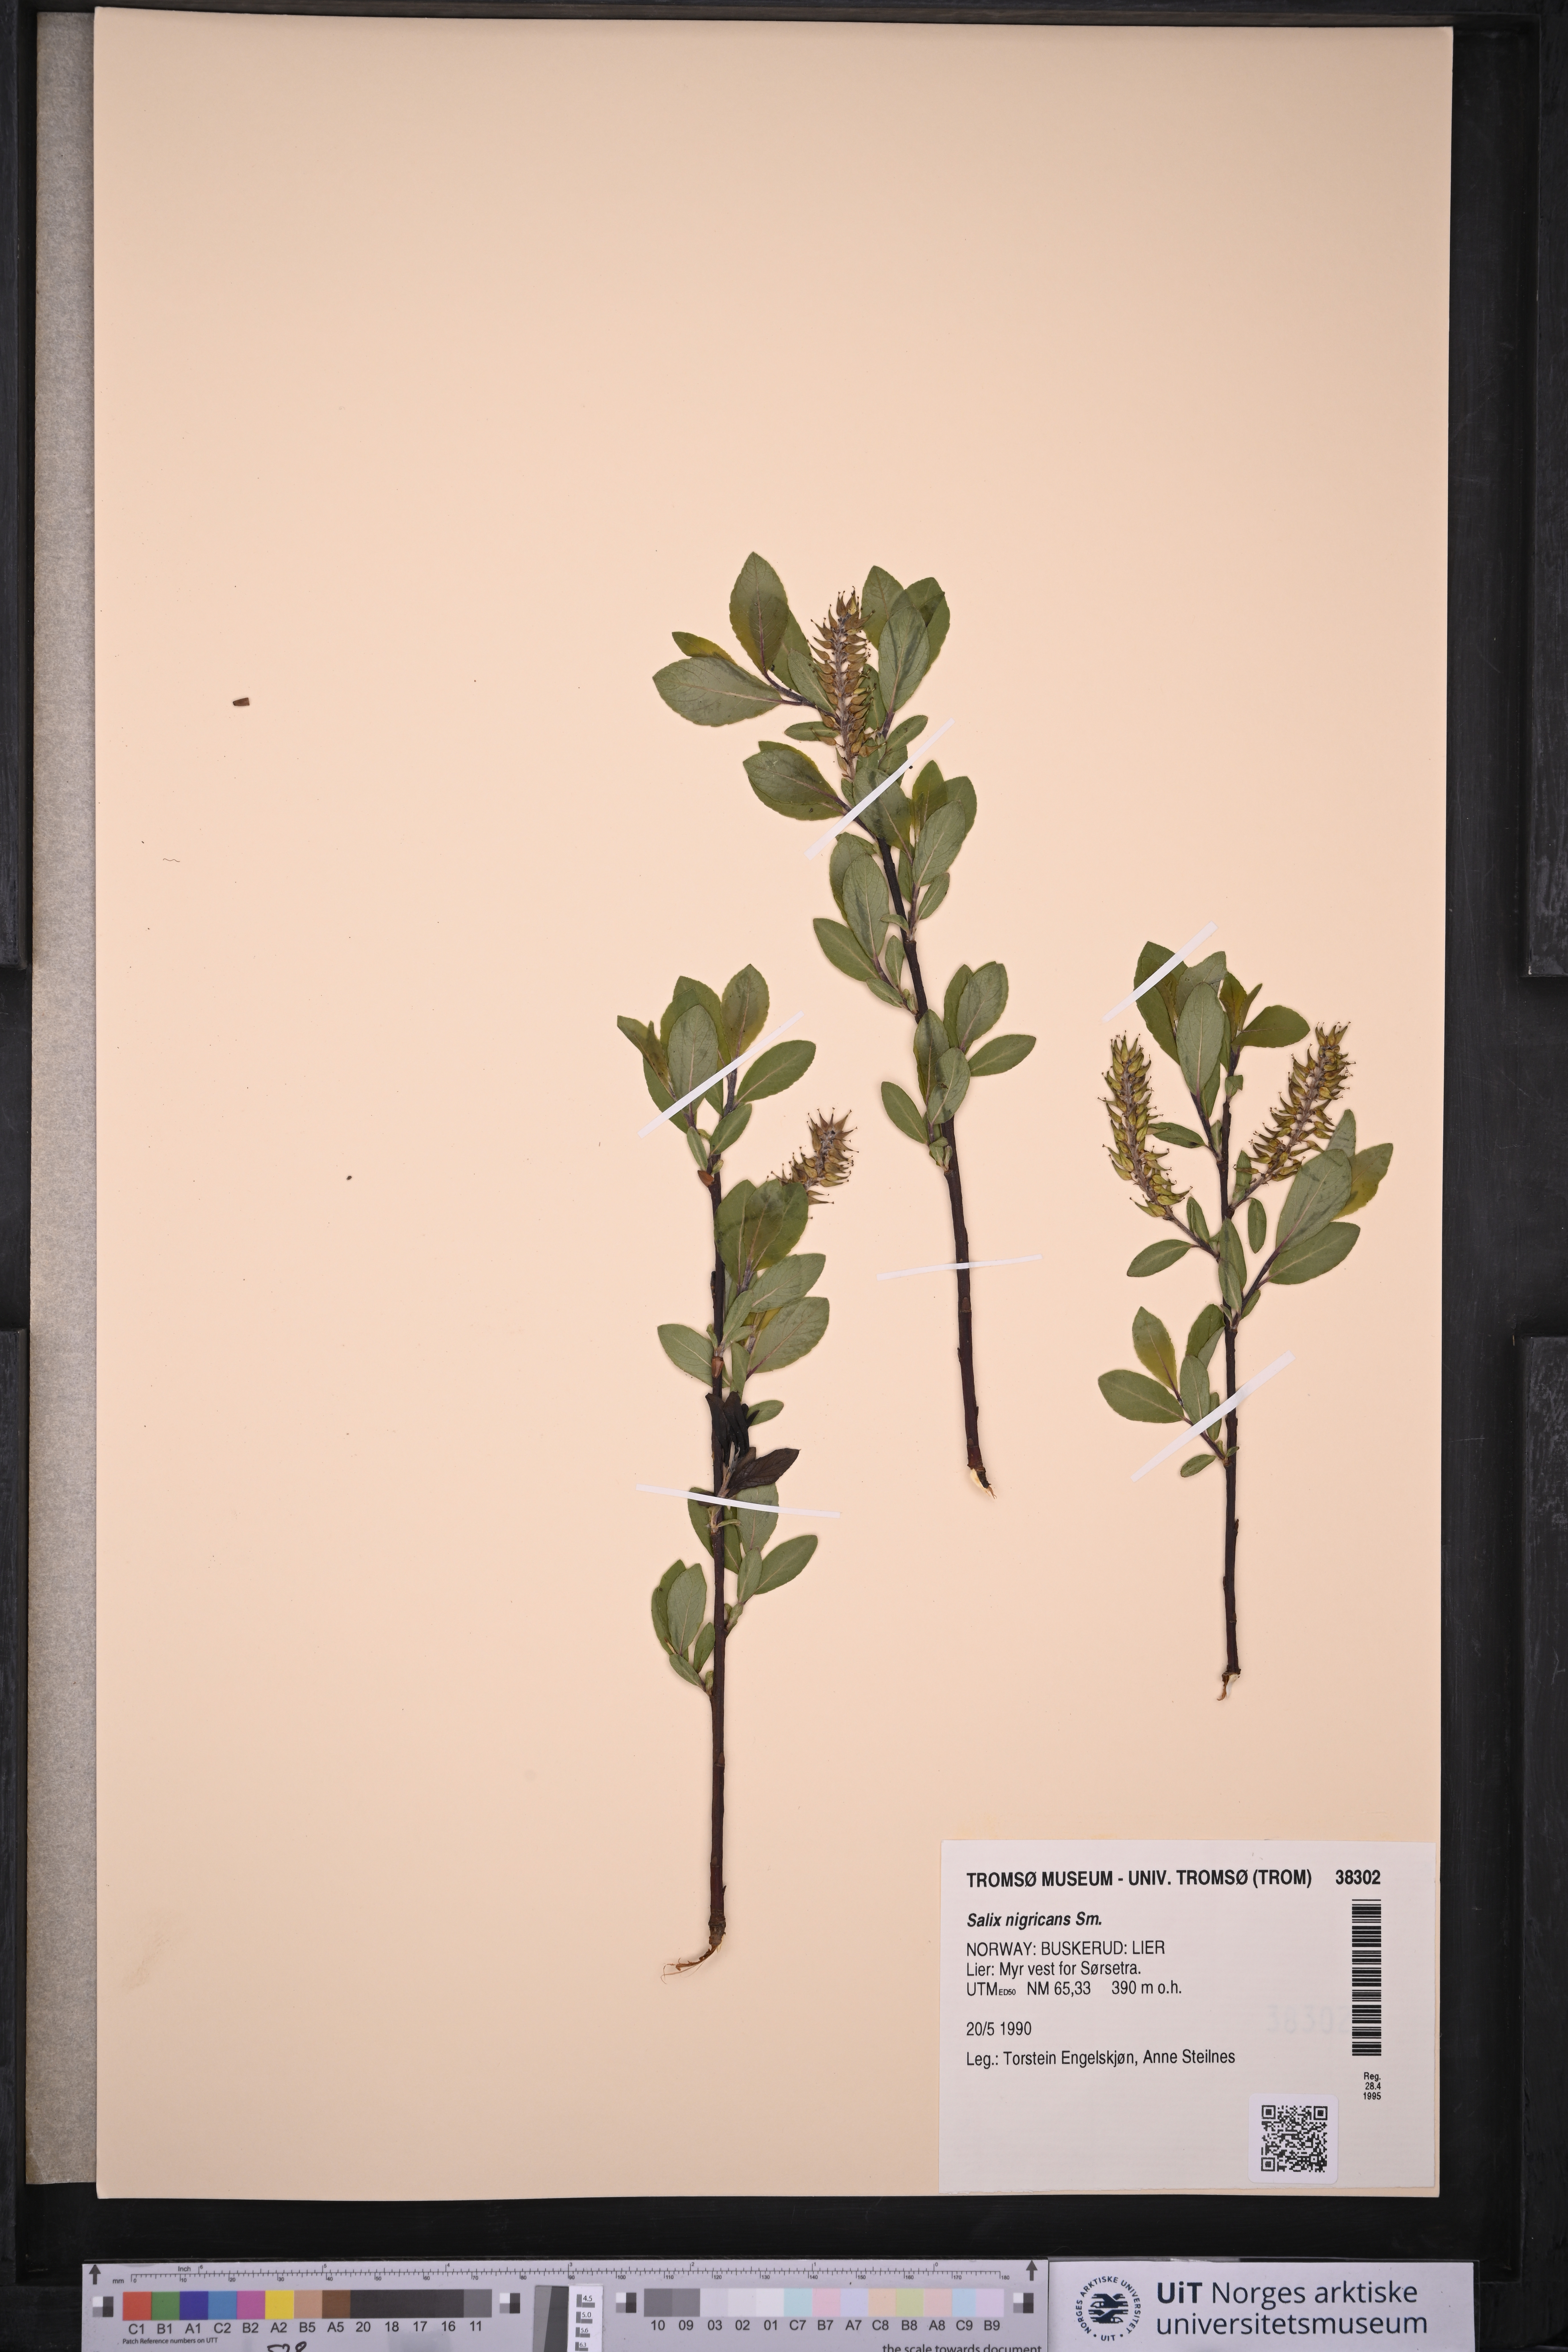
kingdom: Plantae
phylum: Tracheophyta
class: Magnoliopsida
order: Malpighiales
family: Salicaceae
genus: Salix
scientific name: Salix myrsinifolia
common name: Dark-leaved willow
